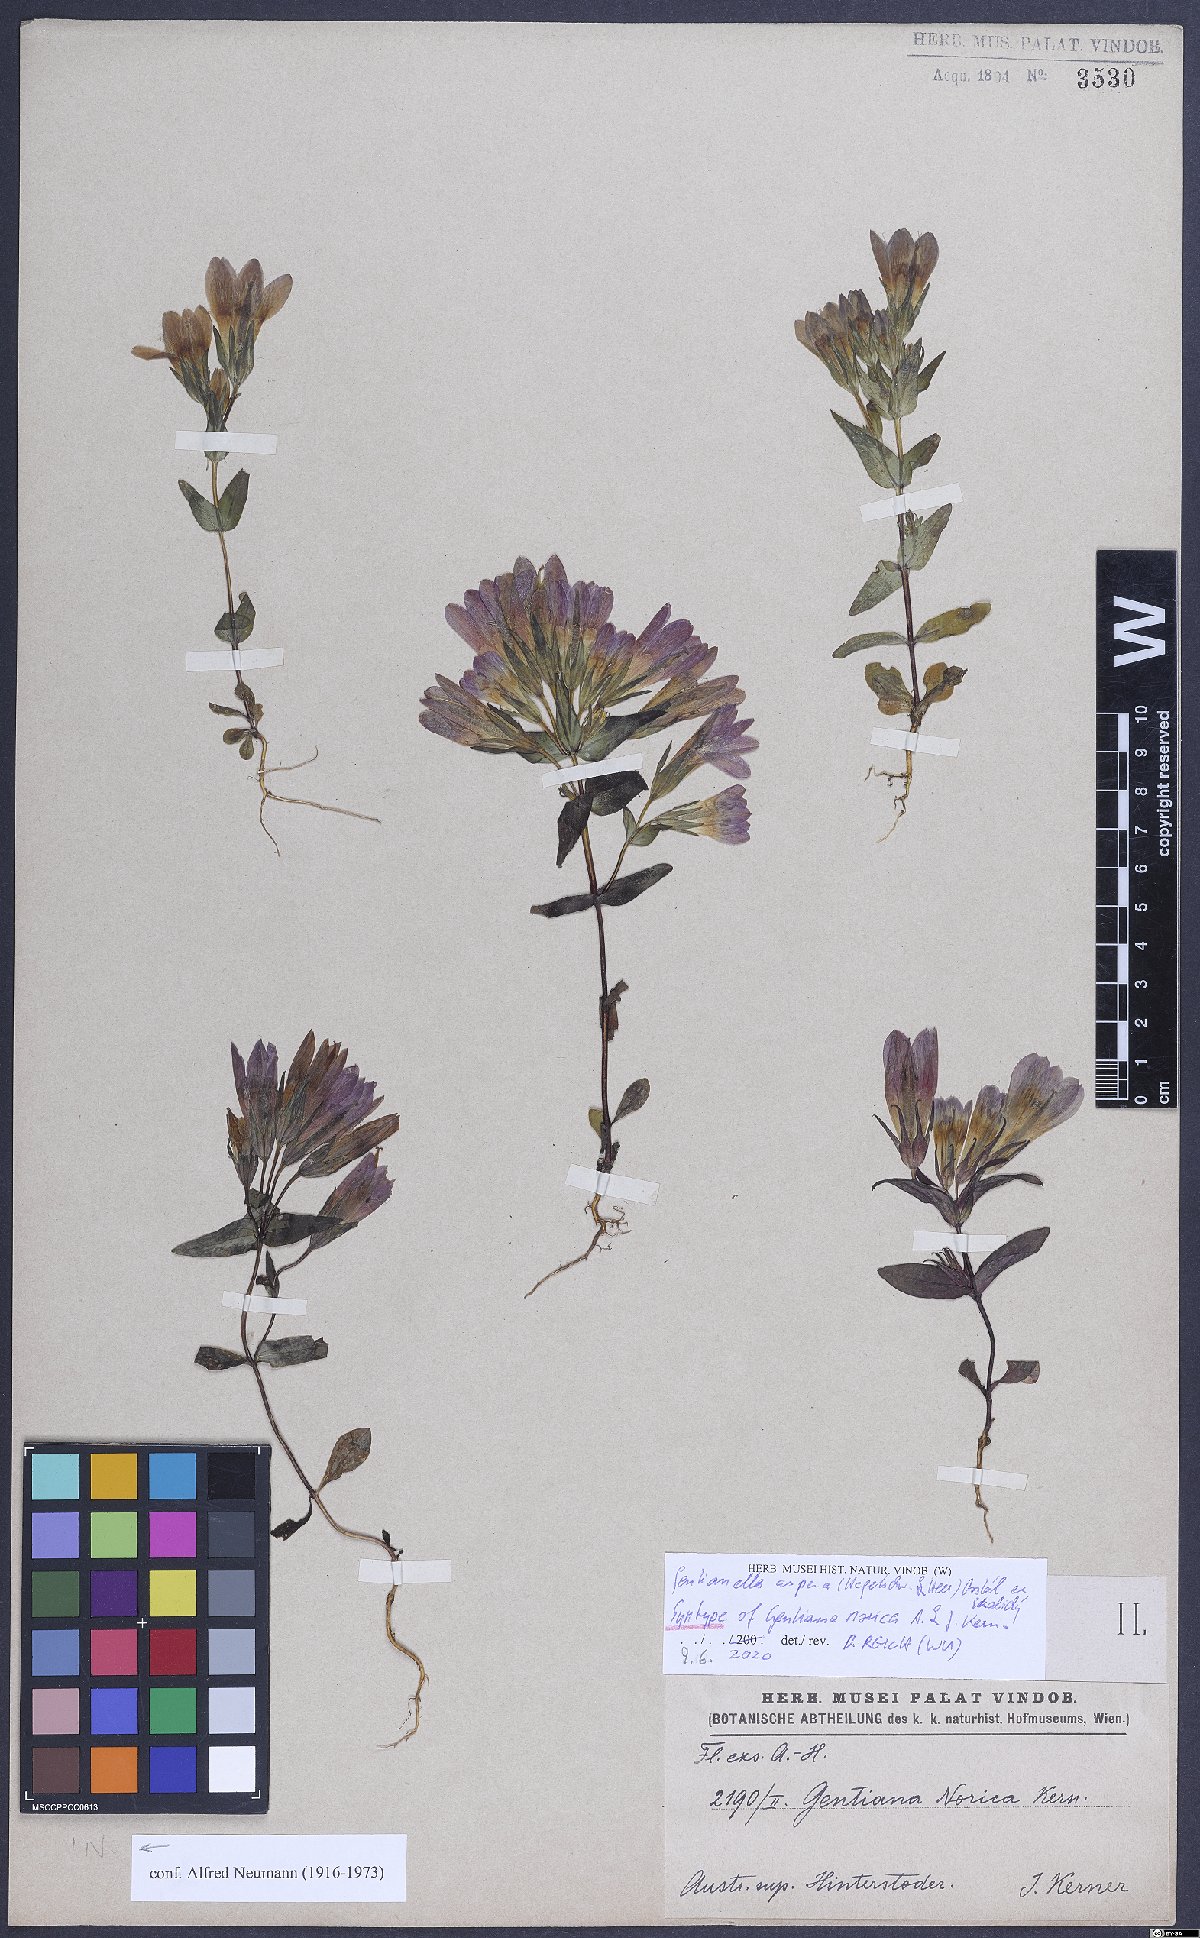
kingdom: Plantae
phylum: Tracheophyta
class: Magnoliopsida
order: Gentianales
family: Gentianaceae
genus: Gentianella
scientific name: Gentianella obtusifolia
